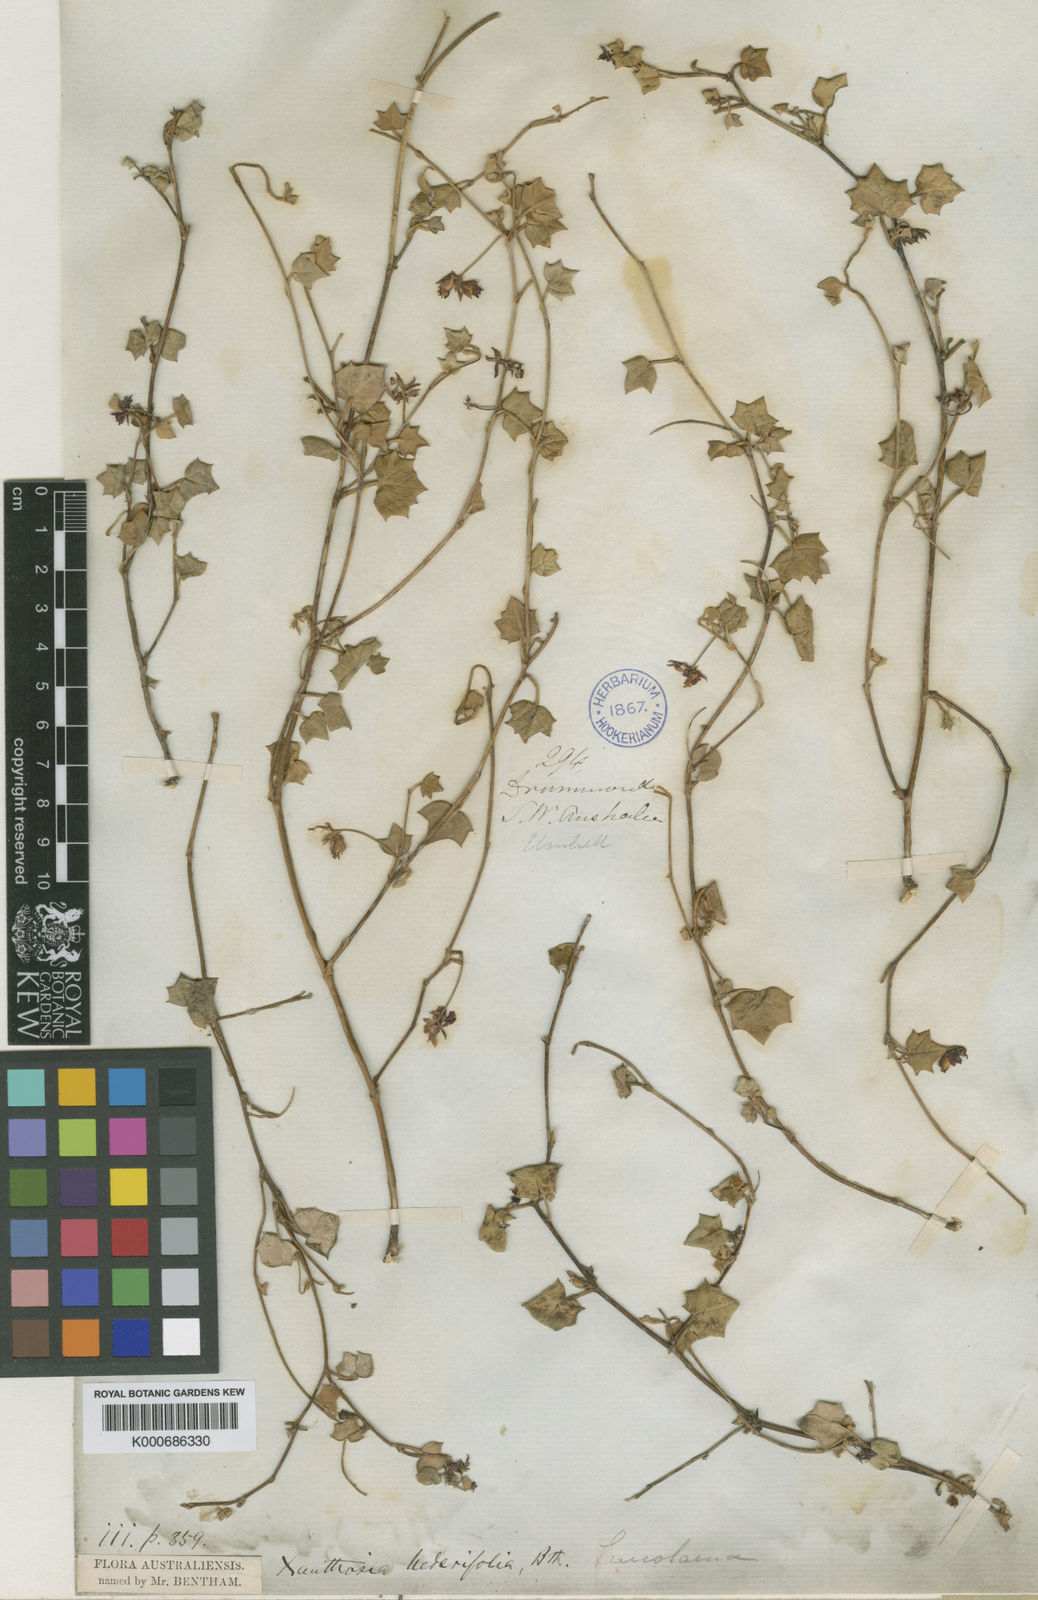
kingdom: Plantae
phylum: Tracheophyta
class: Magnoliopsida
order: Apiales
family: Apiaceae
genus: Xanthosia
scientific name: Xanthosia hederifolia
